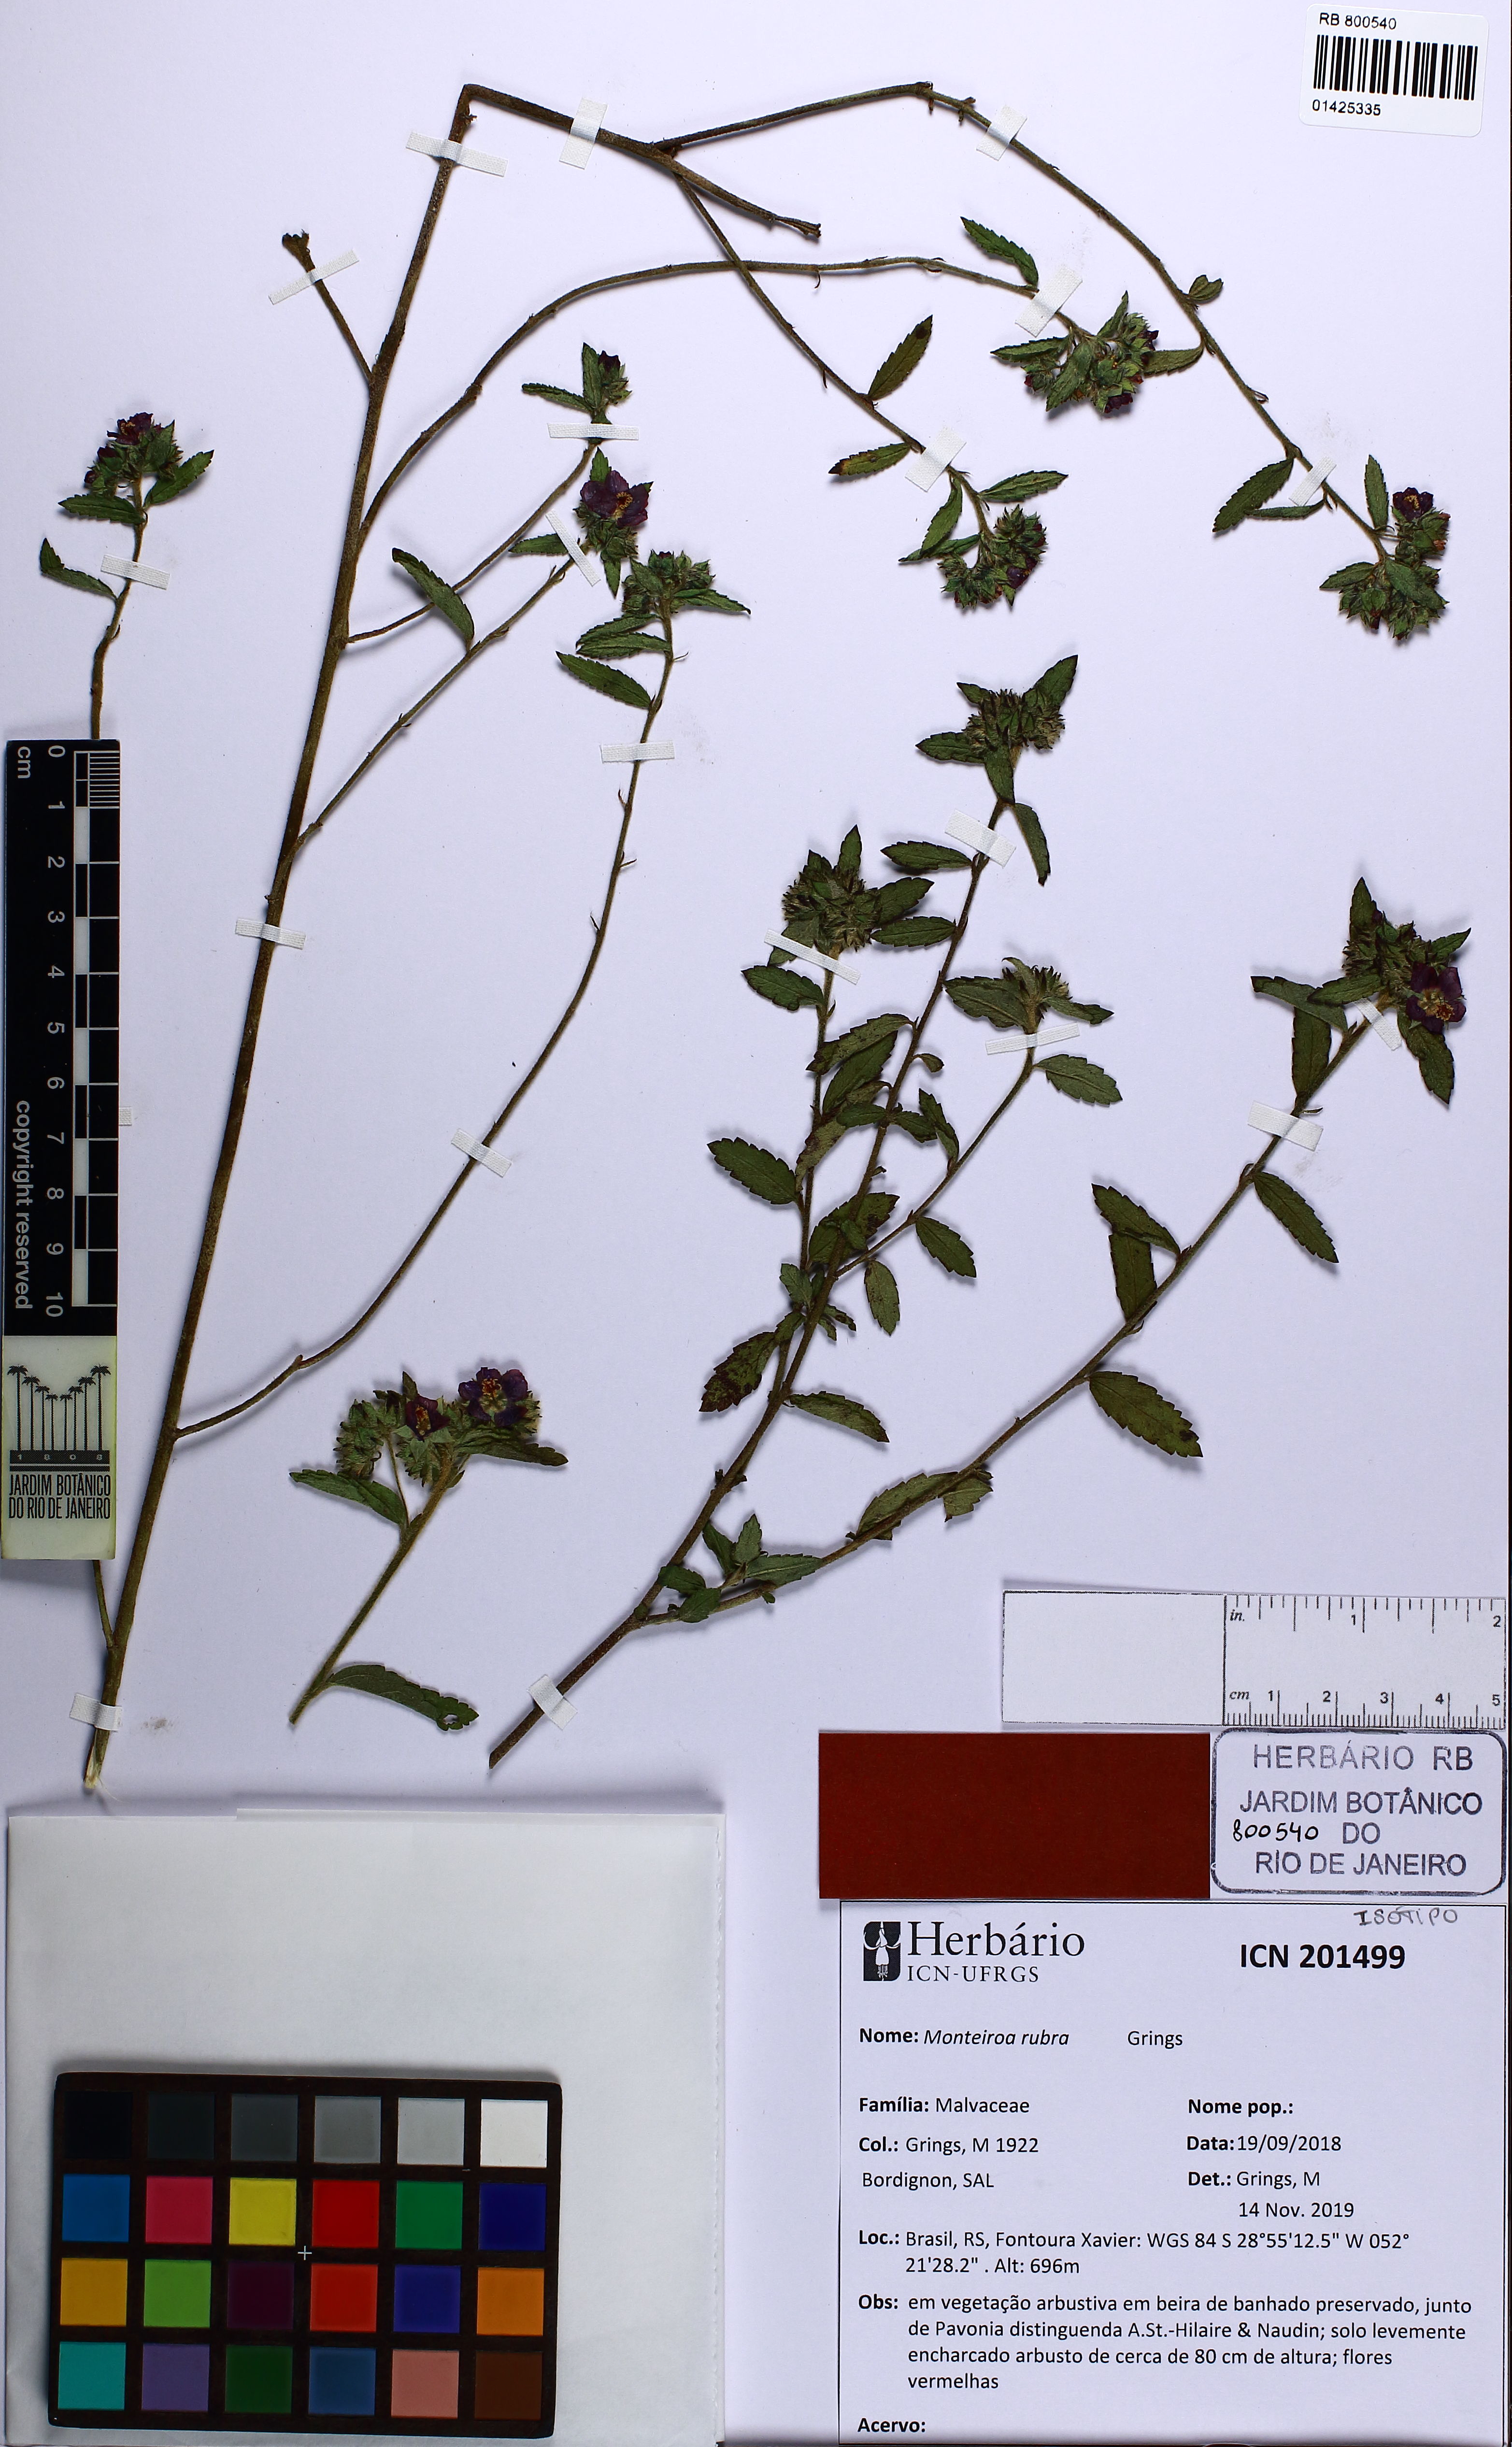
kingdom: Plantae
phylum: Tracheophyta
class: Magnoliopsida
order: Malvales
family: Malvaceae
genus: Monteiroa
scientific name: Monteiroa rubra
